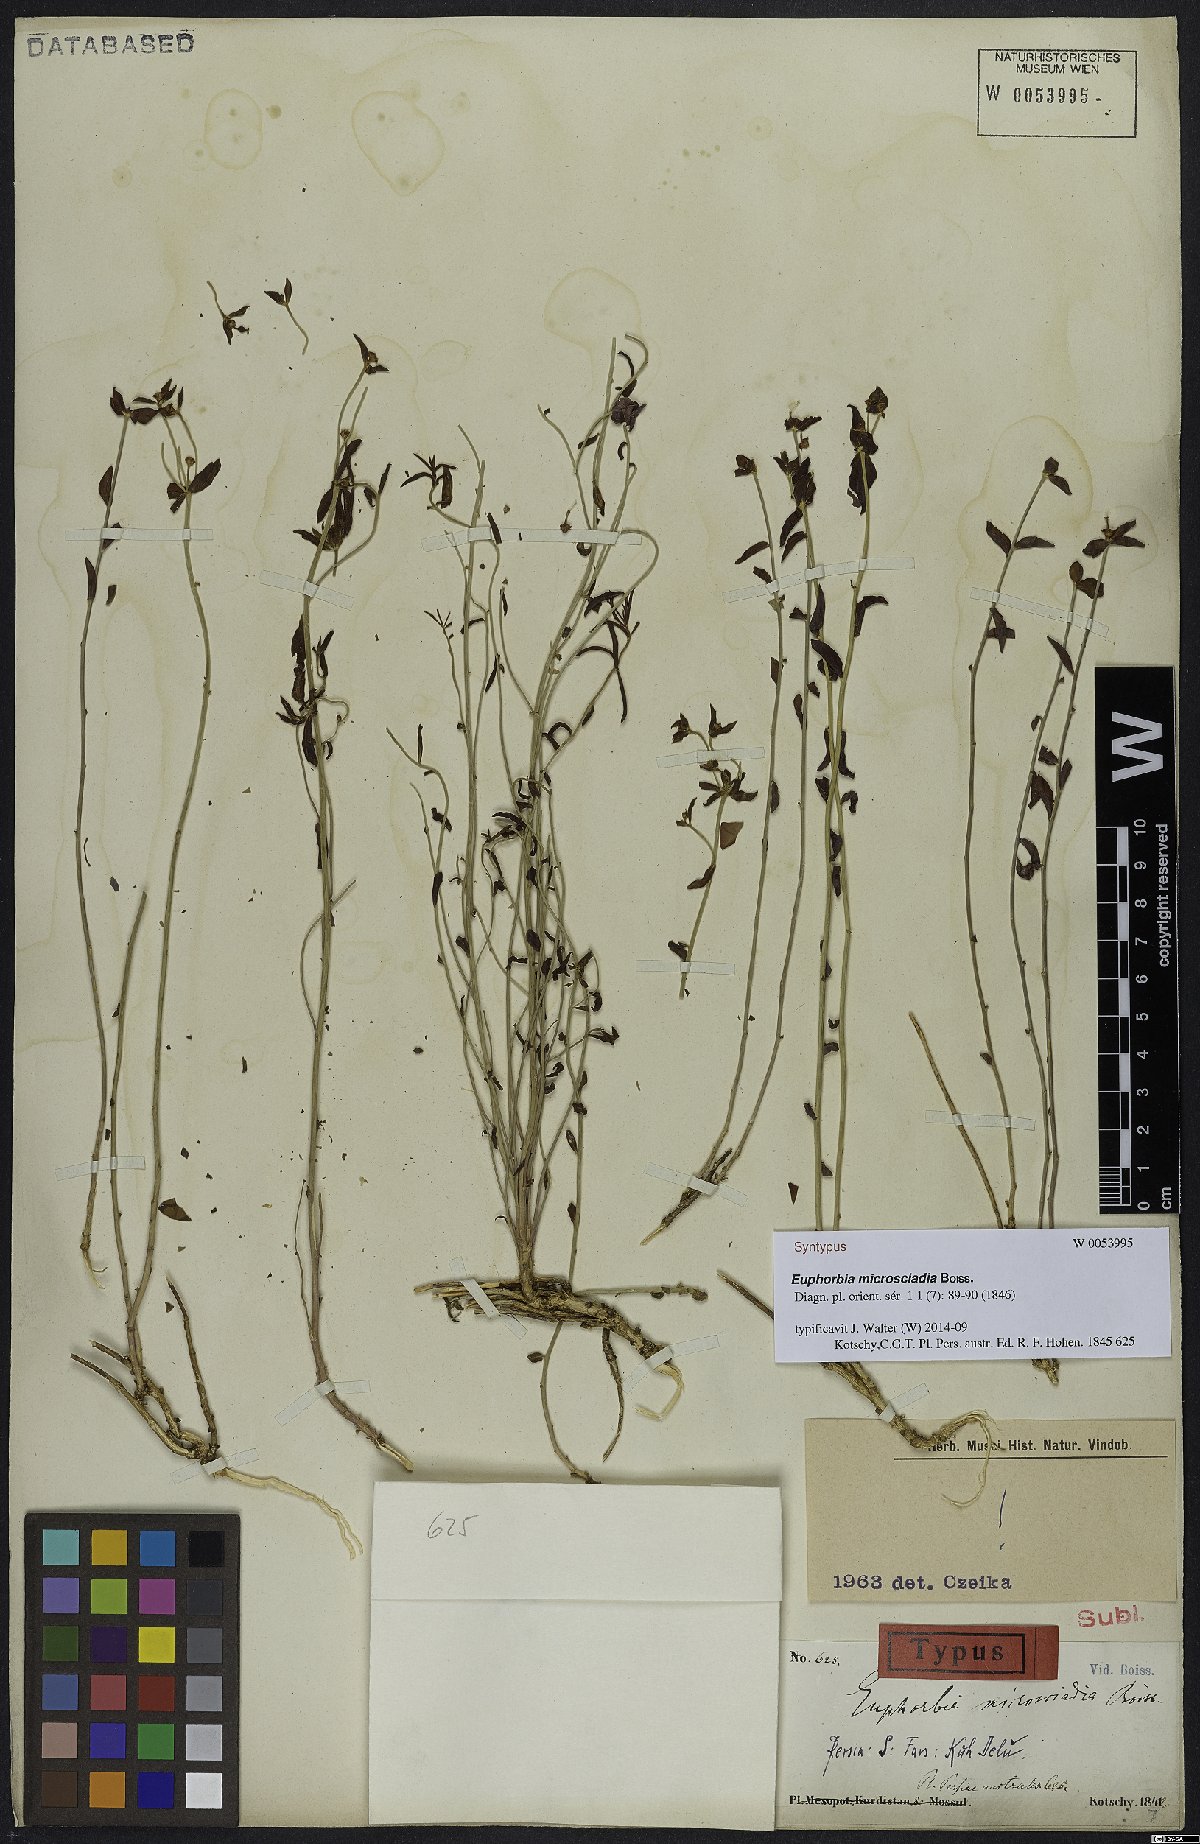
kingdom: Plantae
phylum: Tracheophyta
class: Magnoliopsida
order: Malpighiales
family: Euphorbiaceae
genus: Euphorbia
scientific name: Euphorbia microsciadia
